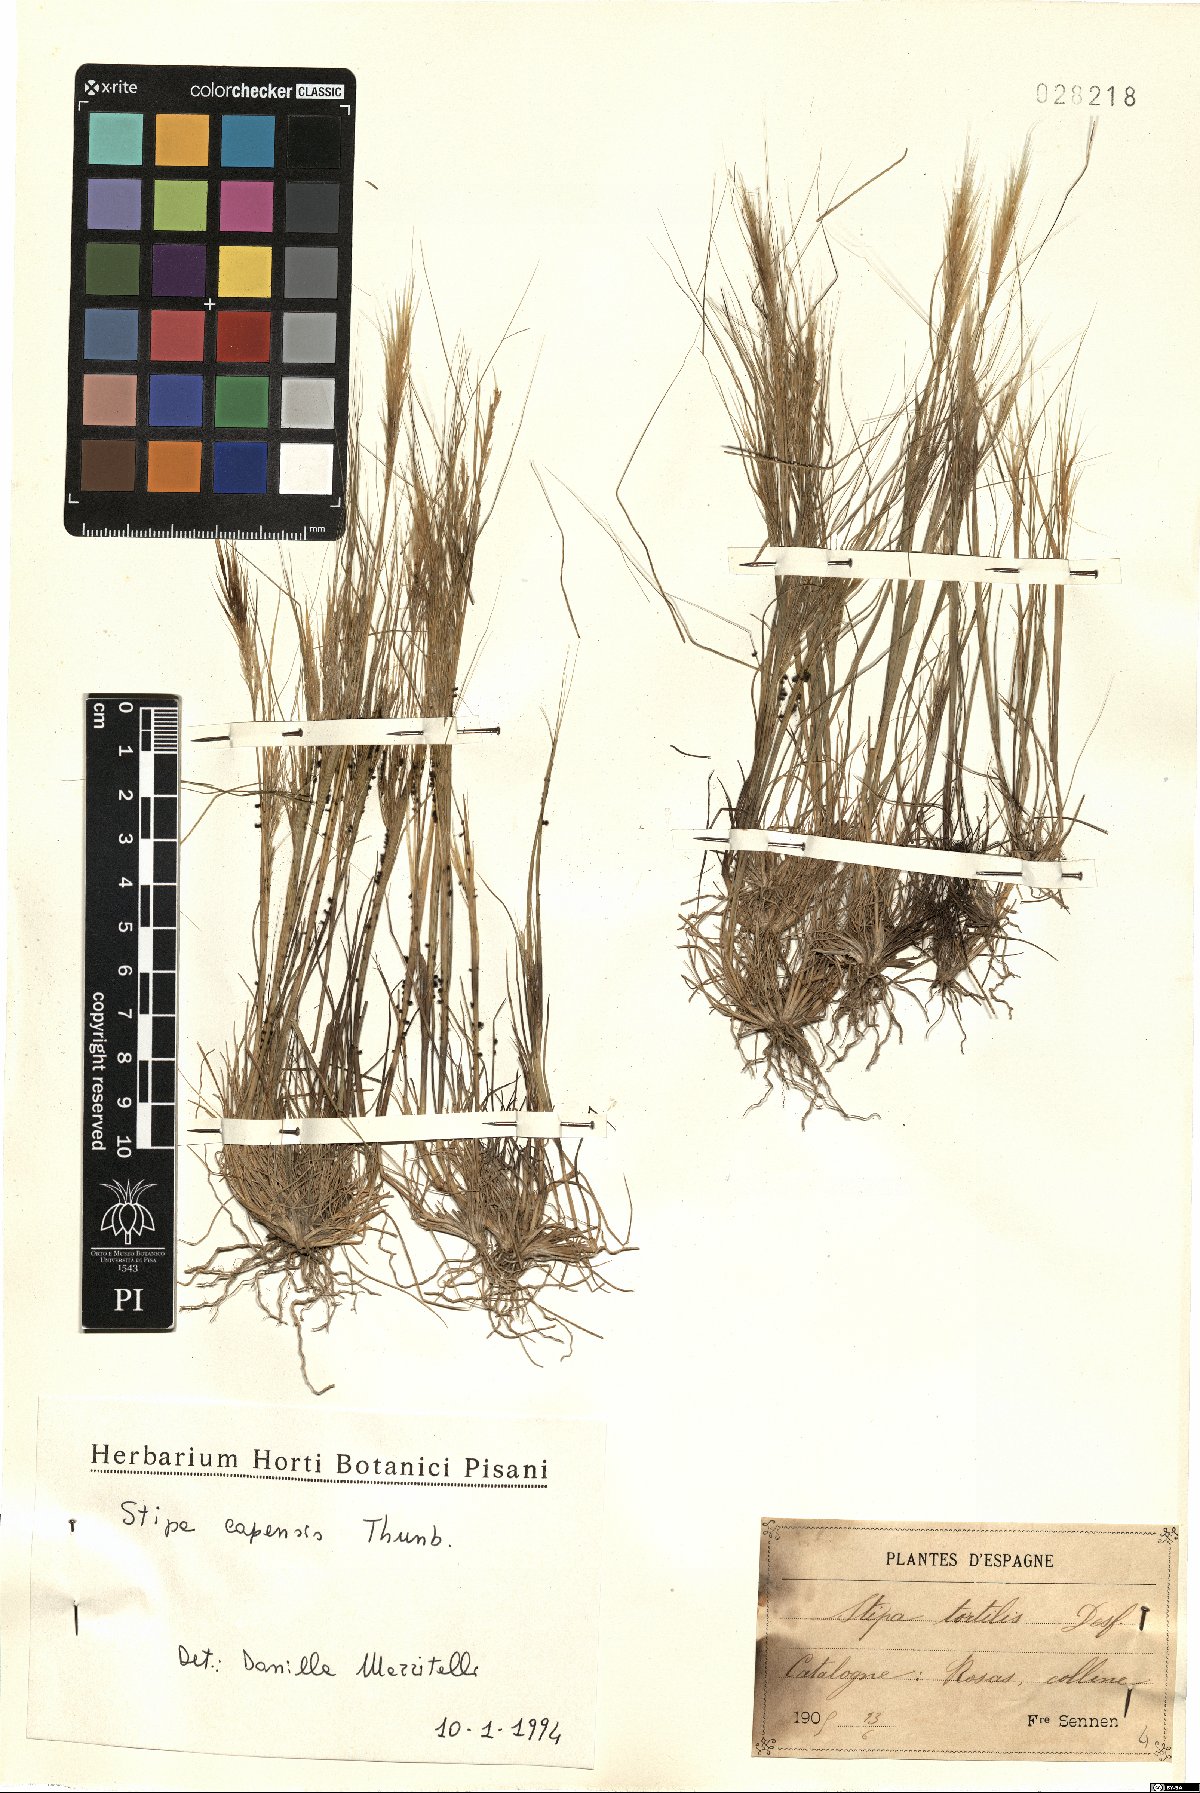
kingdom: Plantae
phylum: Tracheophyta
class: Liliopsida
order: Poales
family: Poaceae
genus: Stipellula
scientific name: Stipellula capensis
